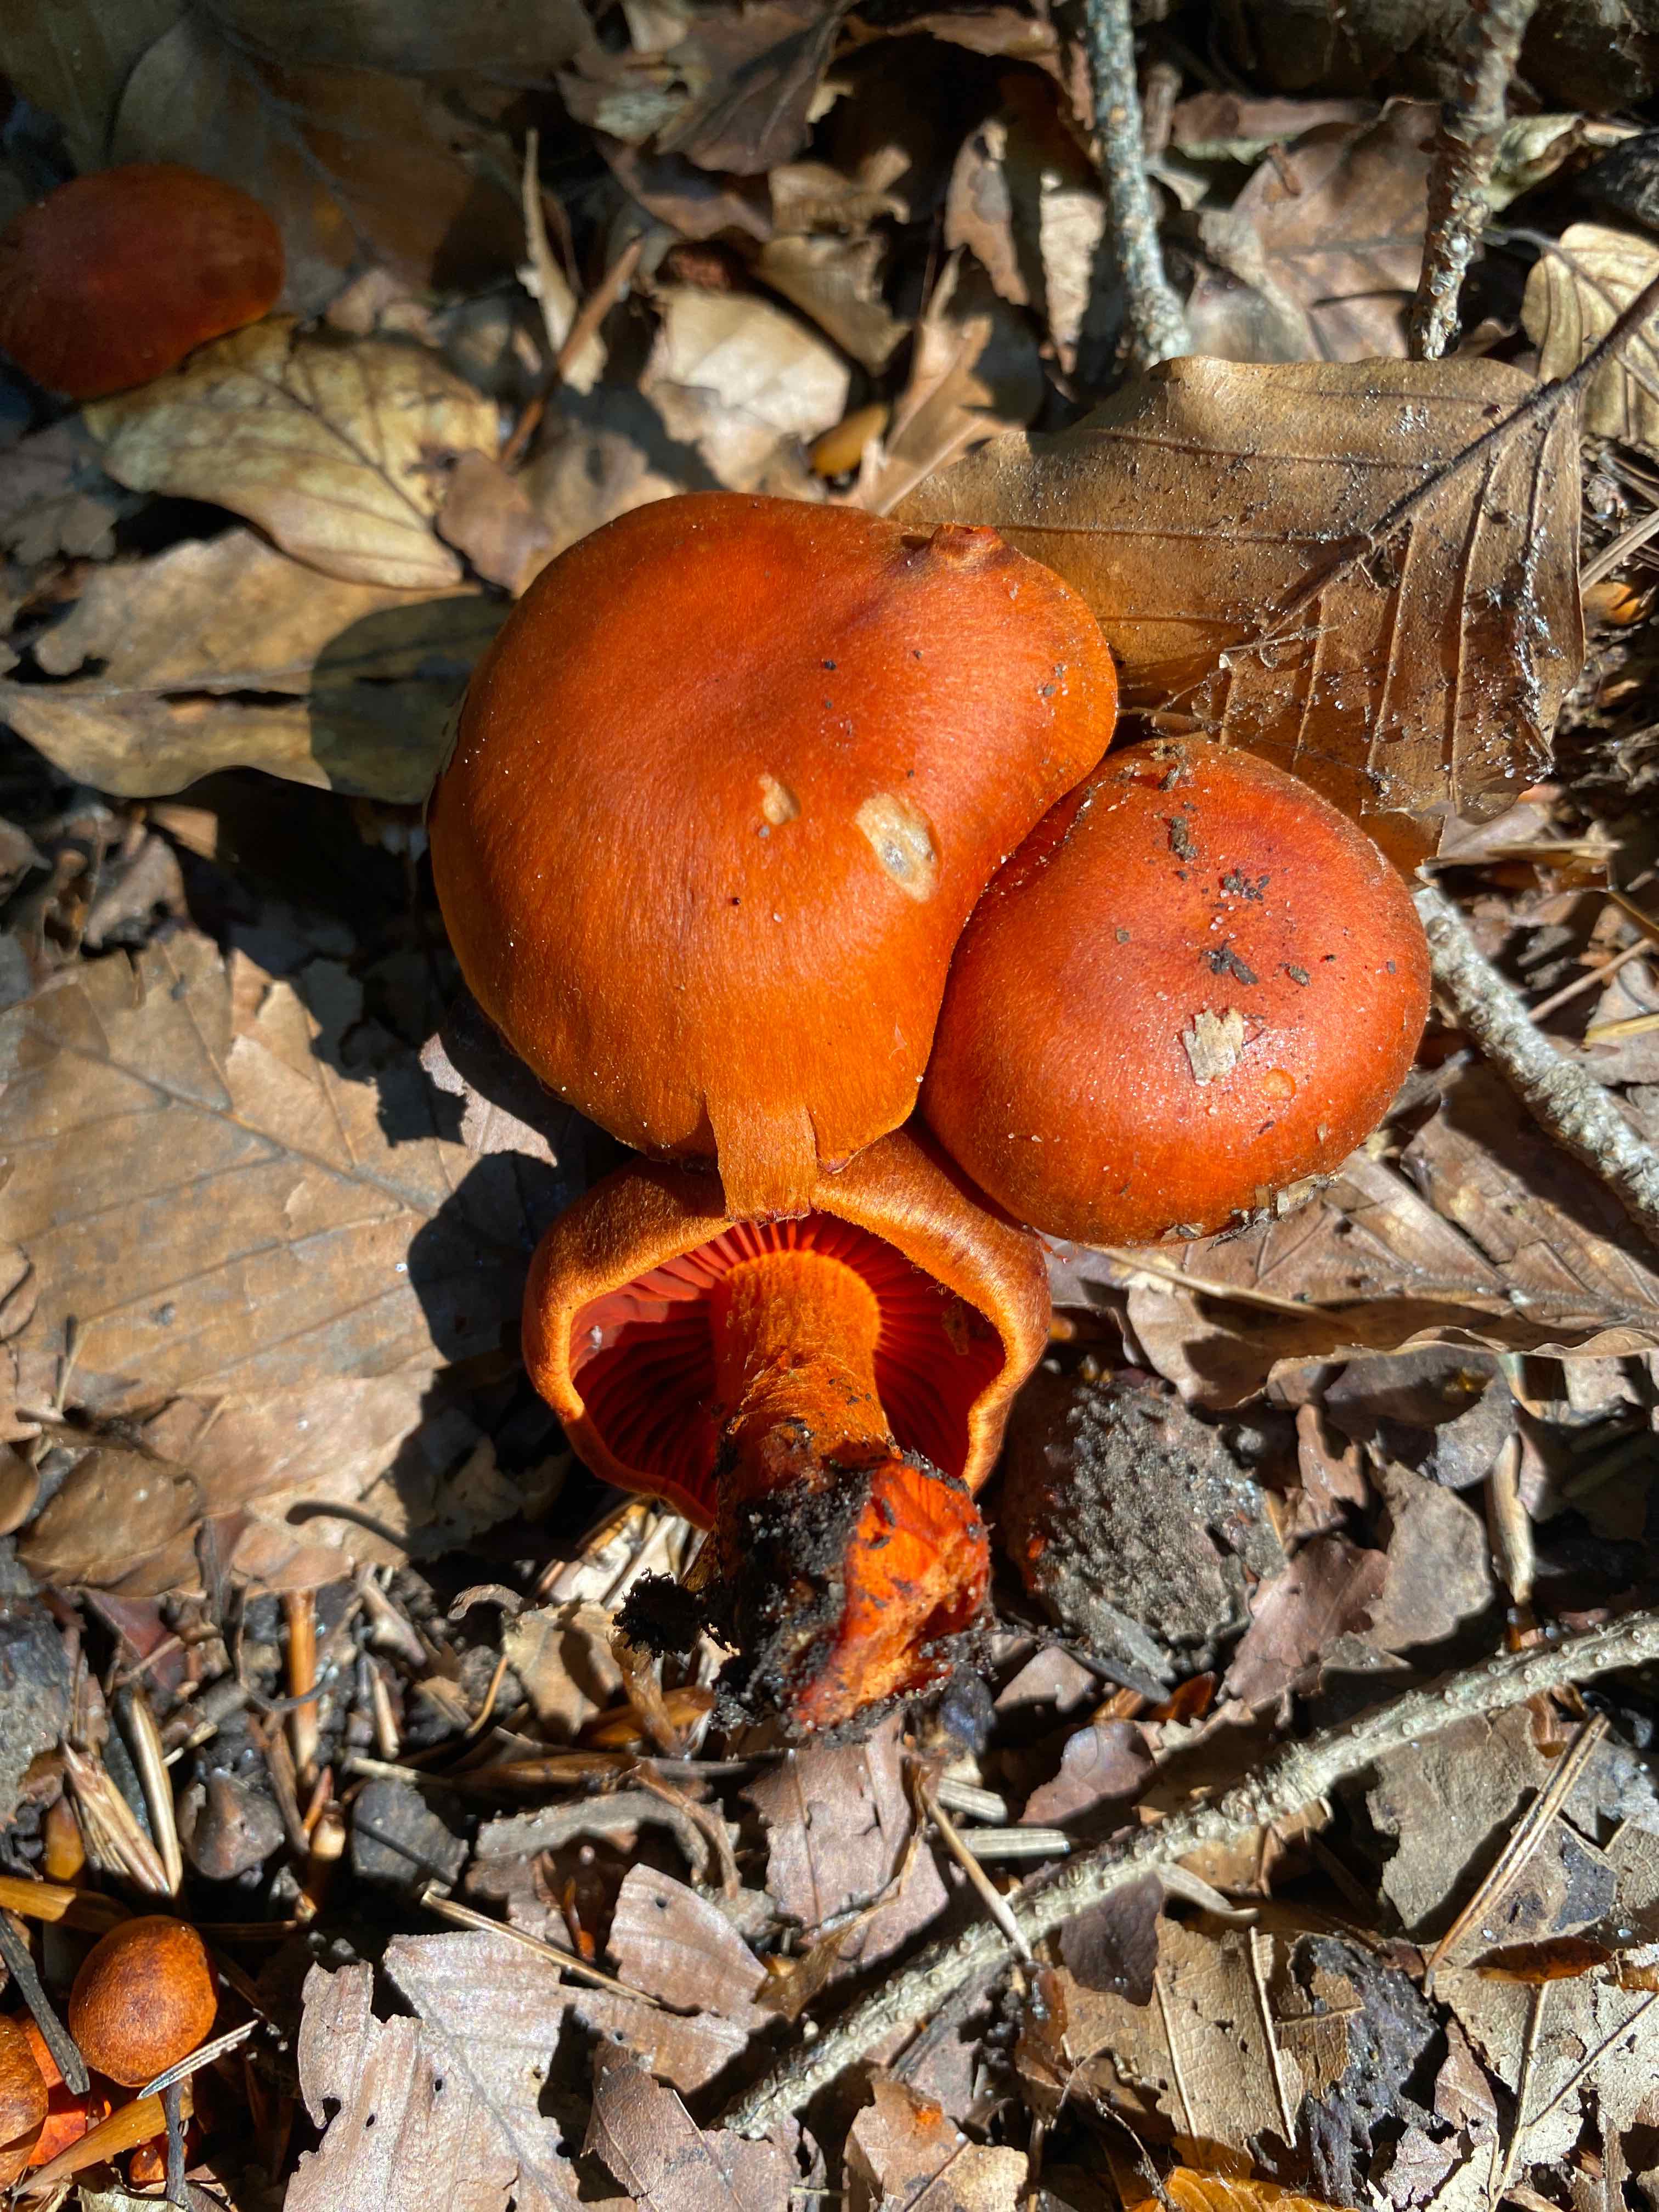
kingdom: Fungi
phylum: Basidiomycota
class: Agaricomycetes
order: Agaricales
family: Cortinariaceae
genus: Cortinarius
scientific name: Cortinarius cinnabarinus
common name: cinnober-slørhat
